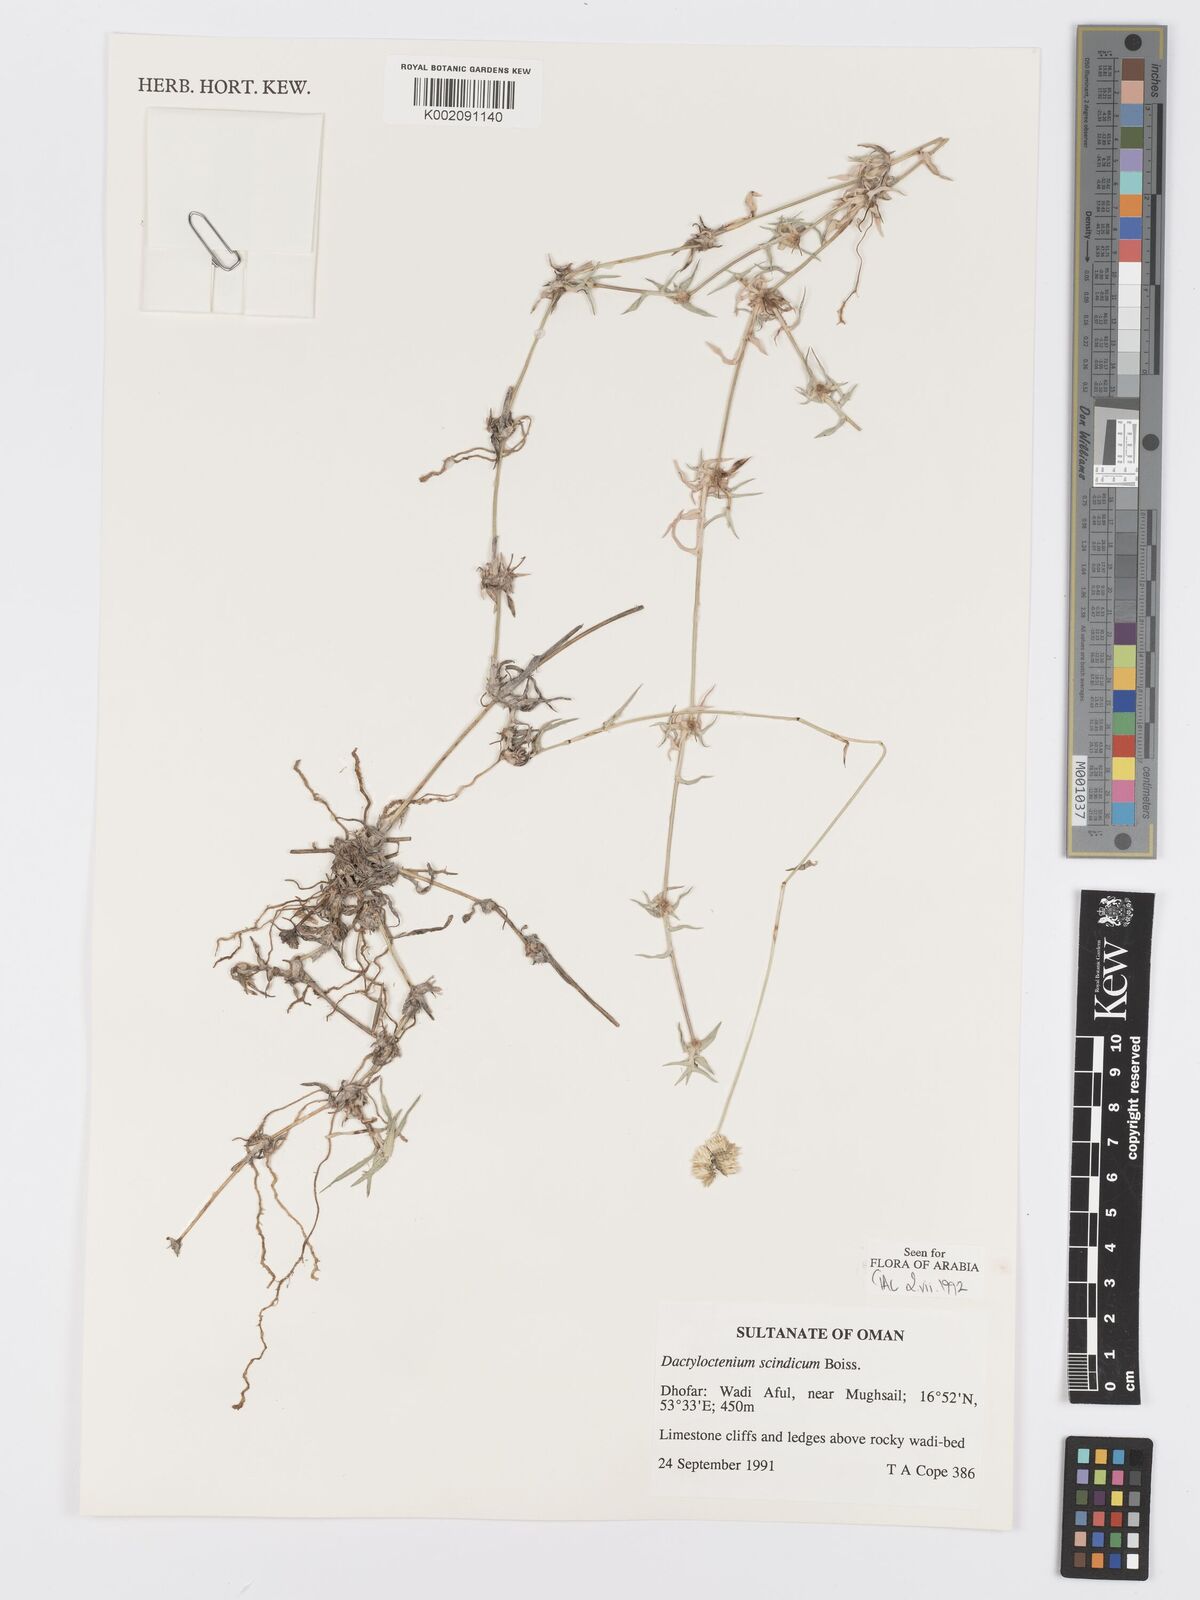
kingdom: Plantae
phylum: Tracheophyta
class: Liliopsida
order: Poales
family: Poaceae
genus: Dactyloctenium
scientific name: Dactyloctenium scindicum
